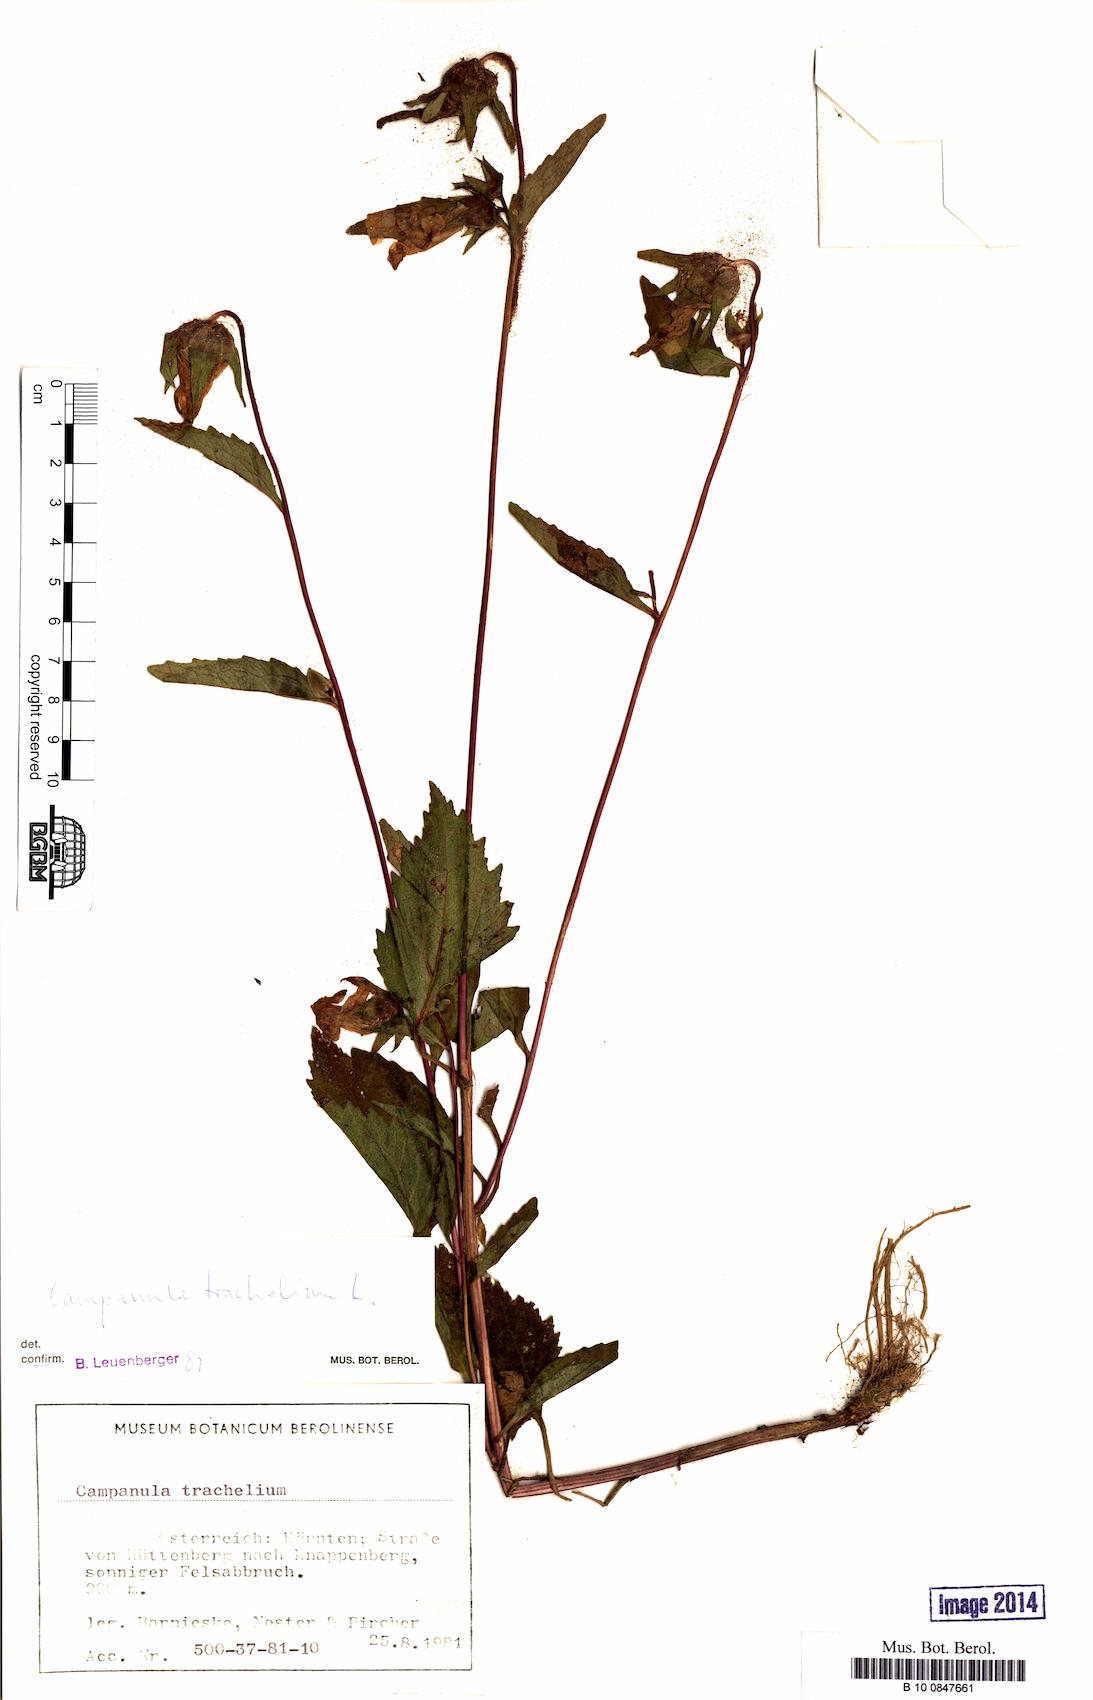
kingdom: Plantae
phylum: Tracheophyta
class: Magnoliopsida
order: Asterales
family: Campanulaceae
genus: Campanula
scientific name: Campanula trachelium
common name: Nettle-leaved bellflower
